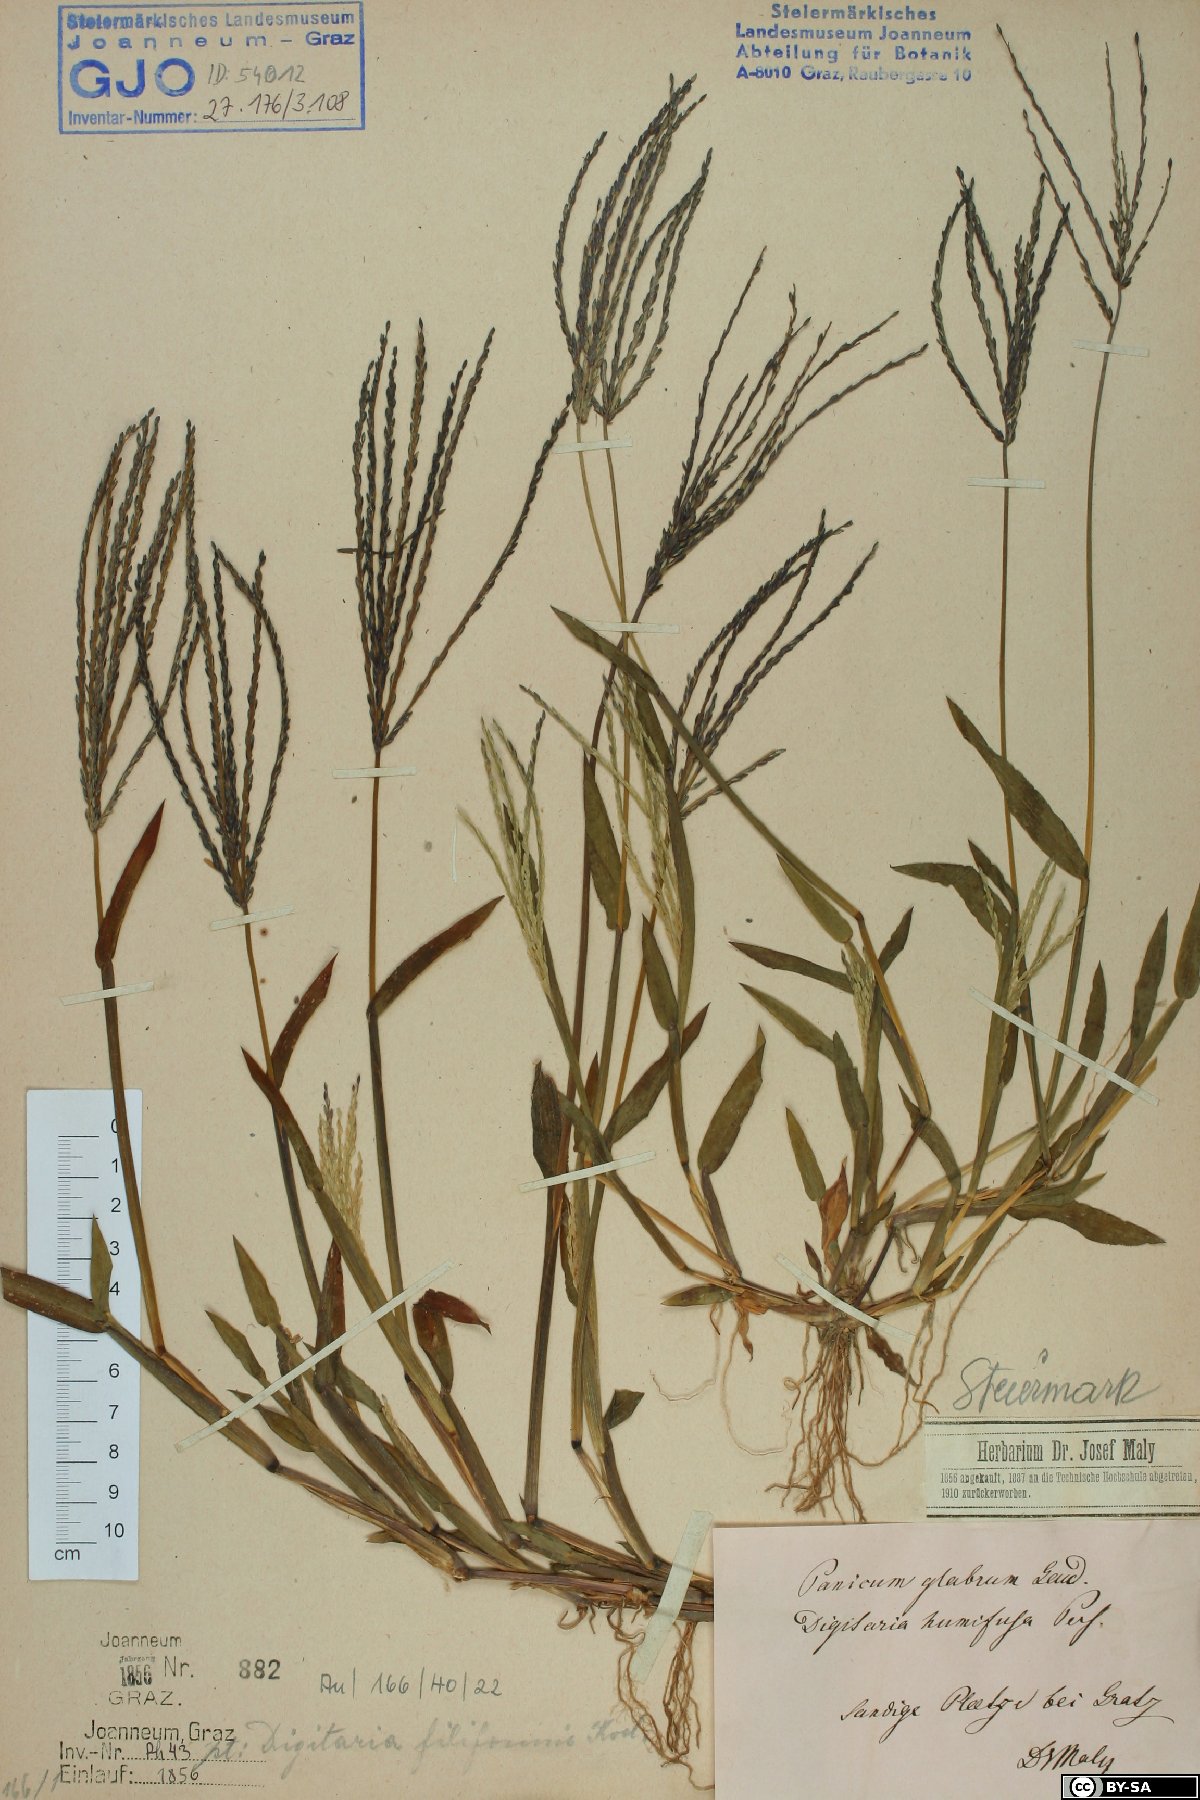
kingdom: Plantae
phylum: Tracheophyta
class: Liliopsida
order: Poales
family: Poaceae
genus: Digitaria
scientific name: Digitaria ischaemum
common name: Smooth crabgrass
